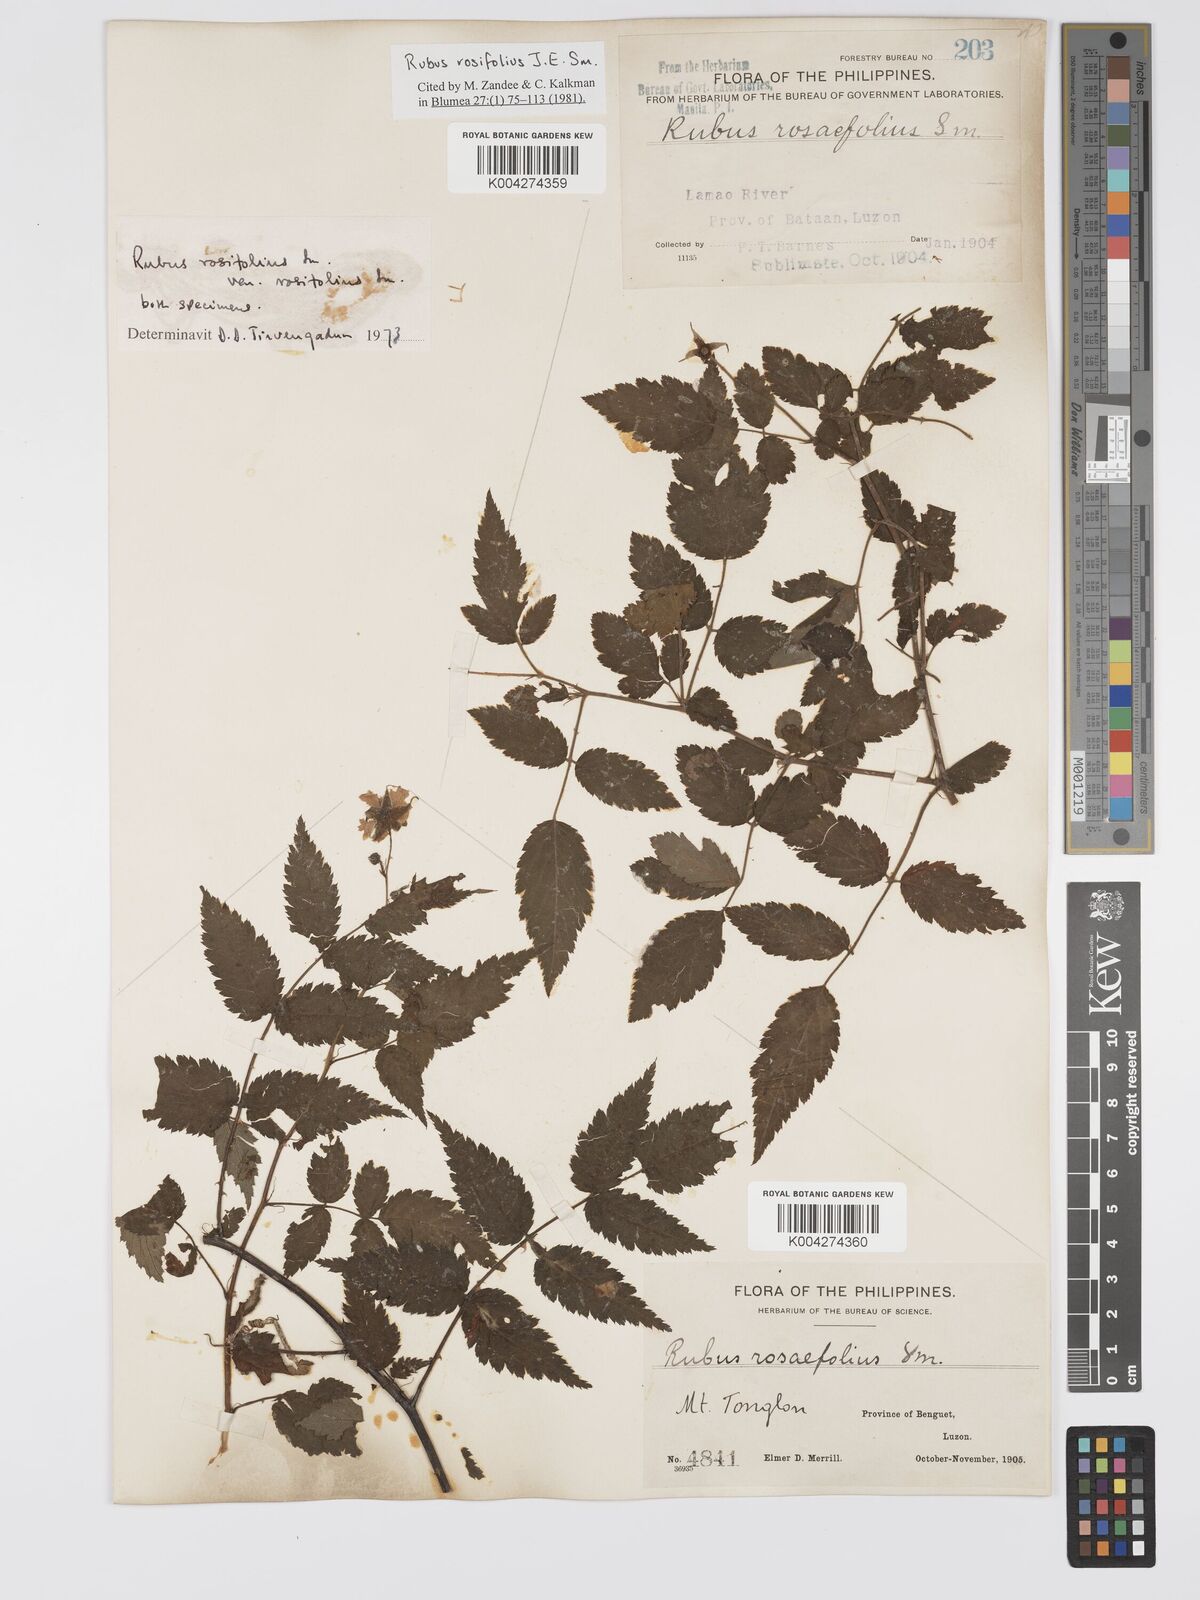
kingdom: Plantae
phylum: Tracheophyta
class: Magnoliopsida
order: Rosales
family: Rosaceae
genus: Rubus
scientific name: Rubus
